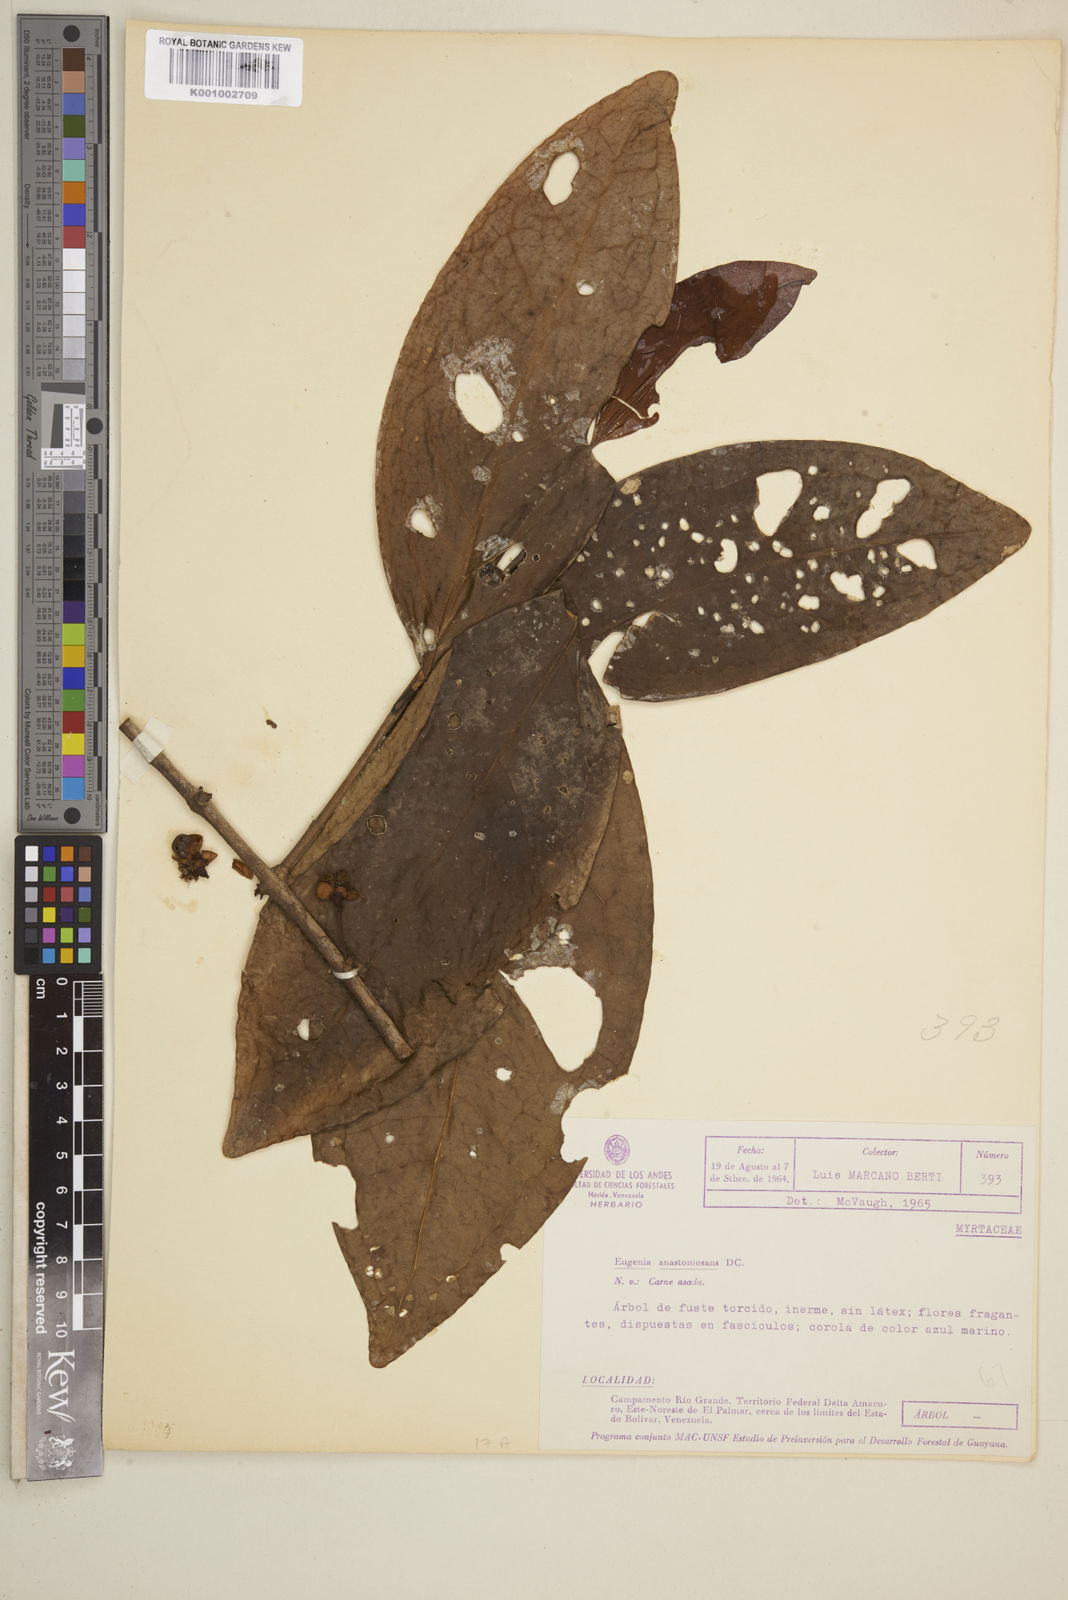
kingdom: Plantae
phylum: Tracheophyta
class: Magnoliopsida
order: Myrtales
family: Myrtaceae
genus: Eugenia
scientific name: Eugenia anastomosans
